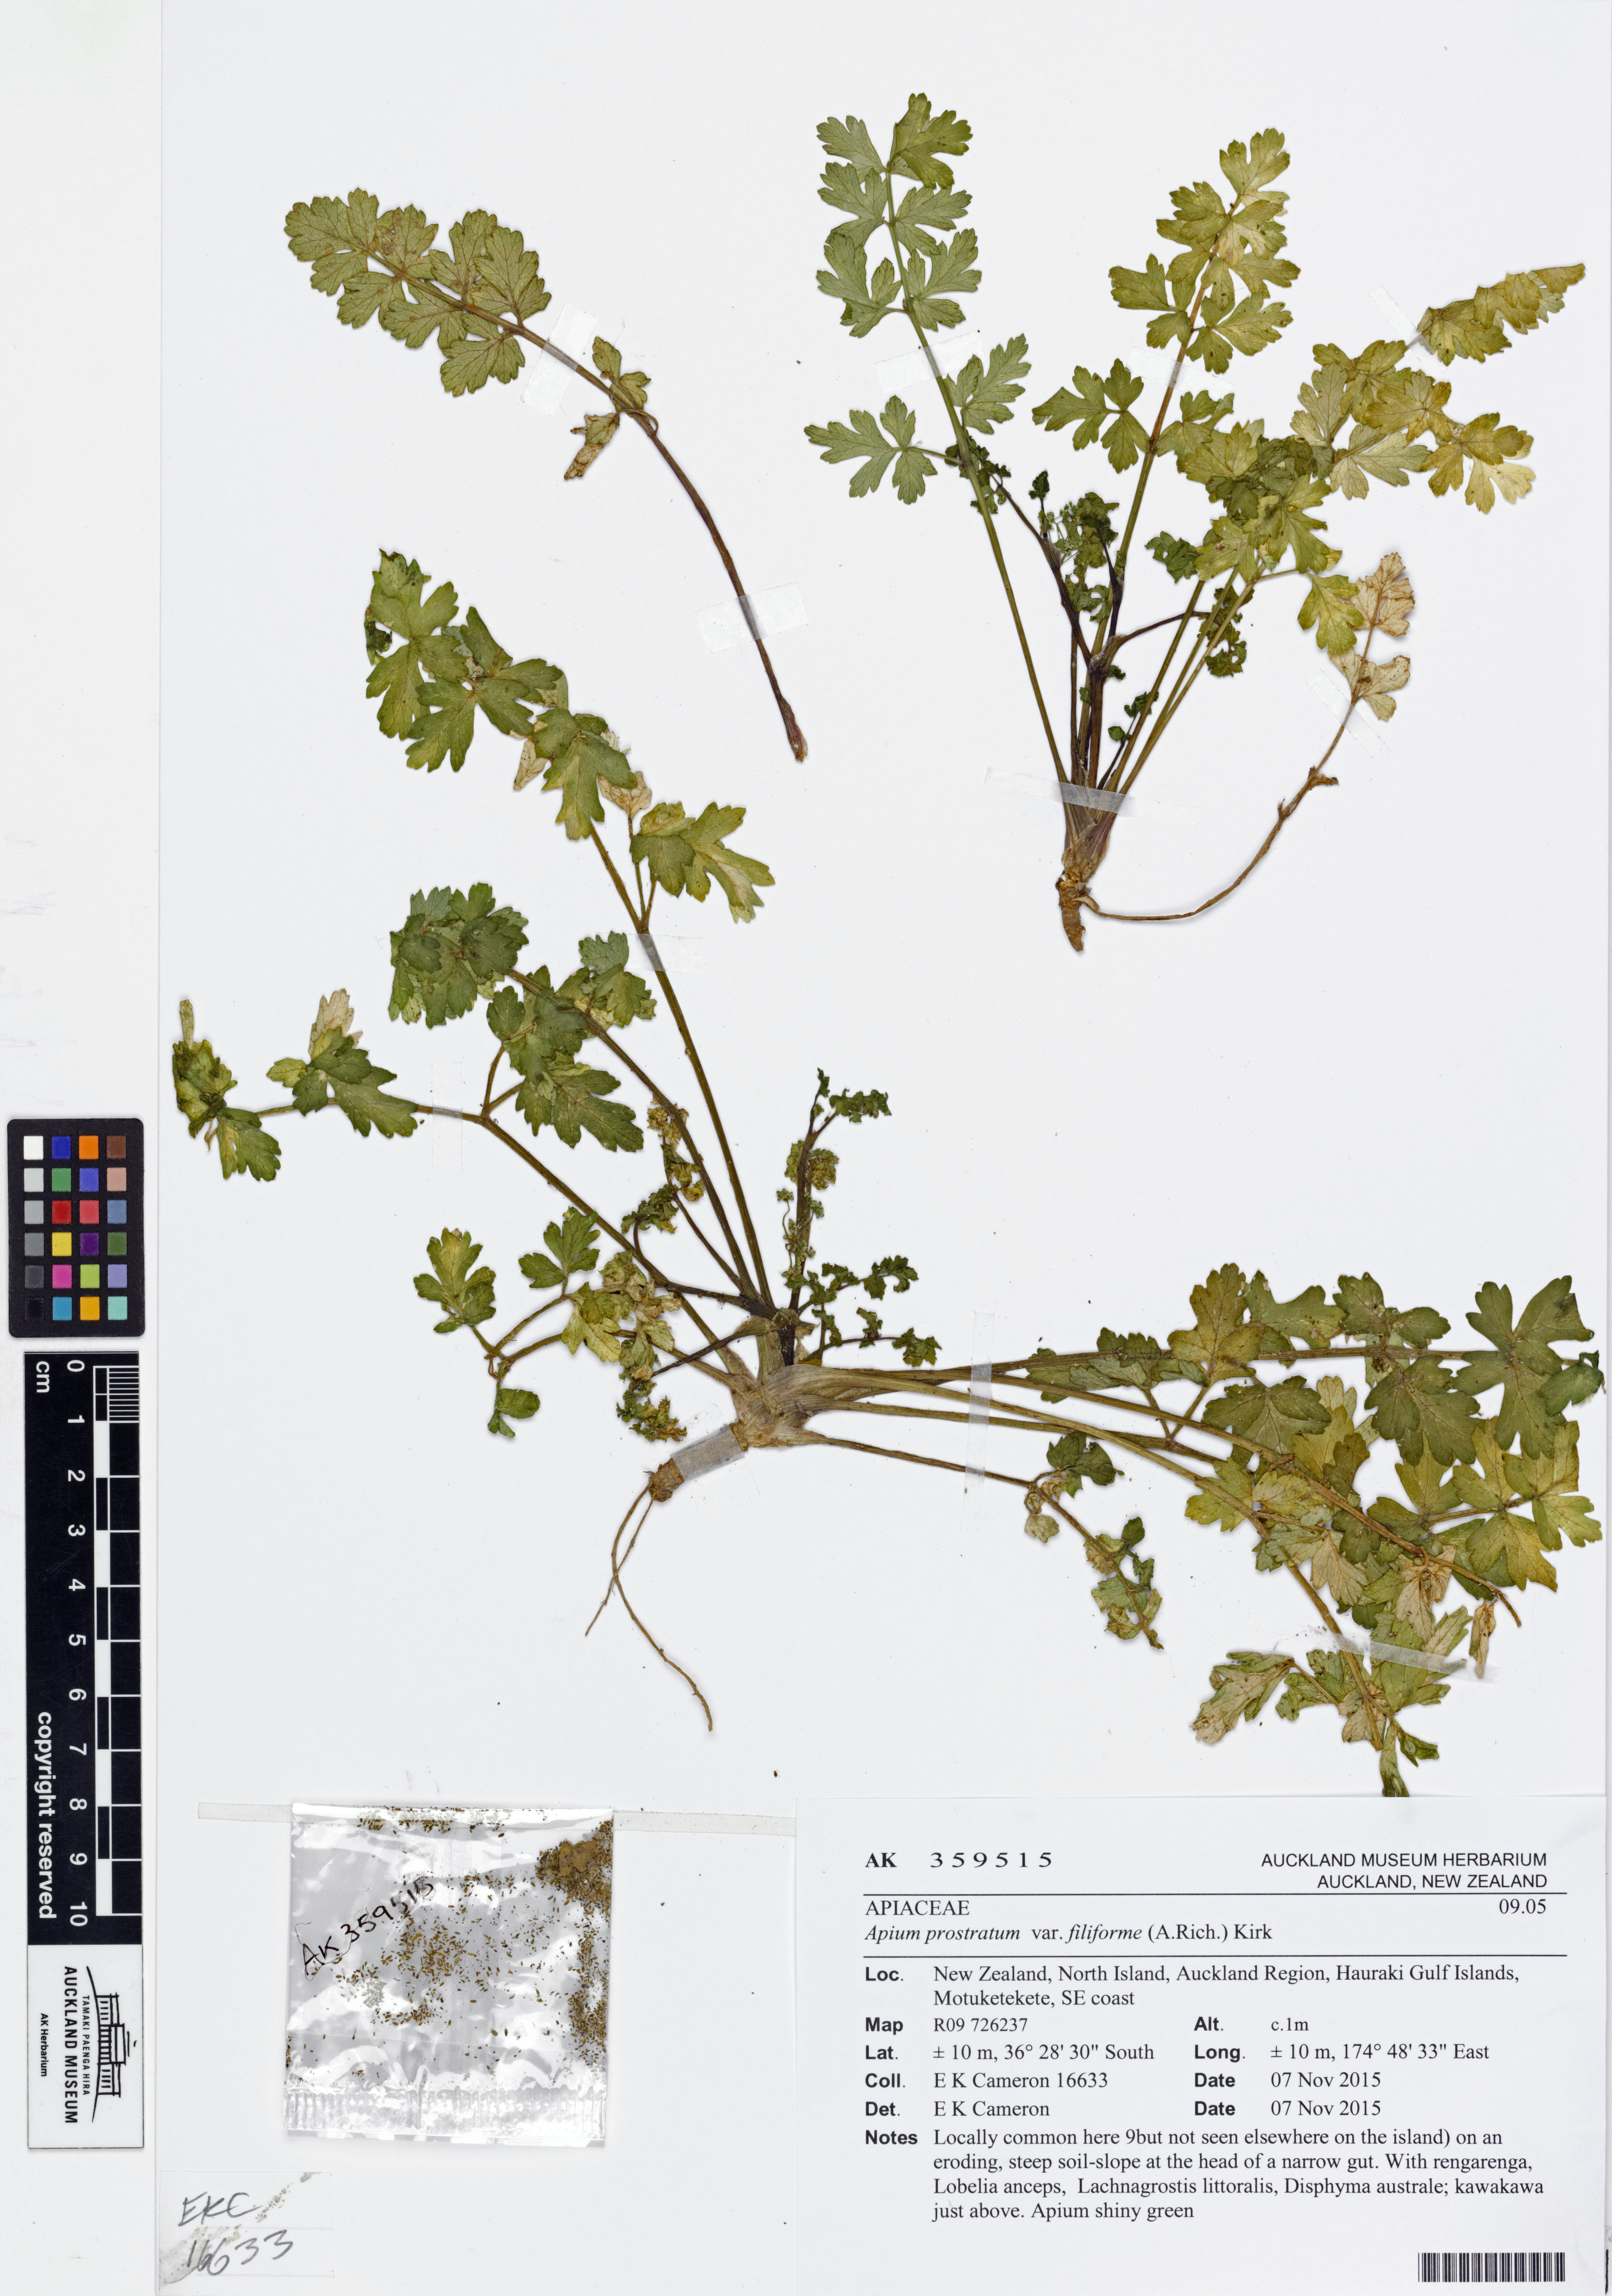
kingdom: Plantae
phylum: Tracheophyta
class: Magnoliopsida
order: Apiales
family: Apiaceae
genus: Apium
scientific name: Apium prostratum
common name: Prostrate marshwort
